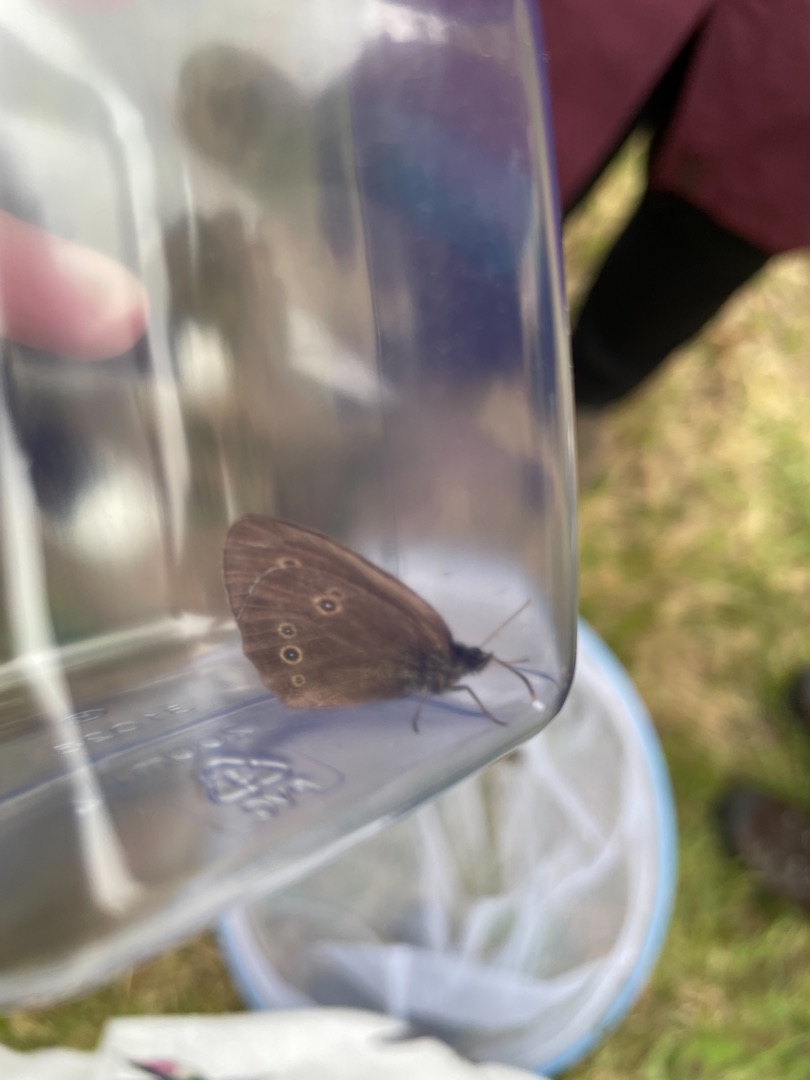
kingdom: Animalia
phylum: Arthropoda
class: Insecta
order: Lepidoptera
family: Nymphalidae
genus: Aphantopus
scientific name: Aphantopus hyperantus
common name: Engrandøje
